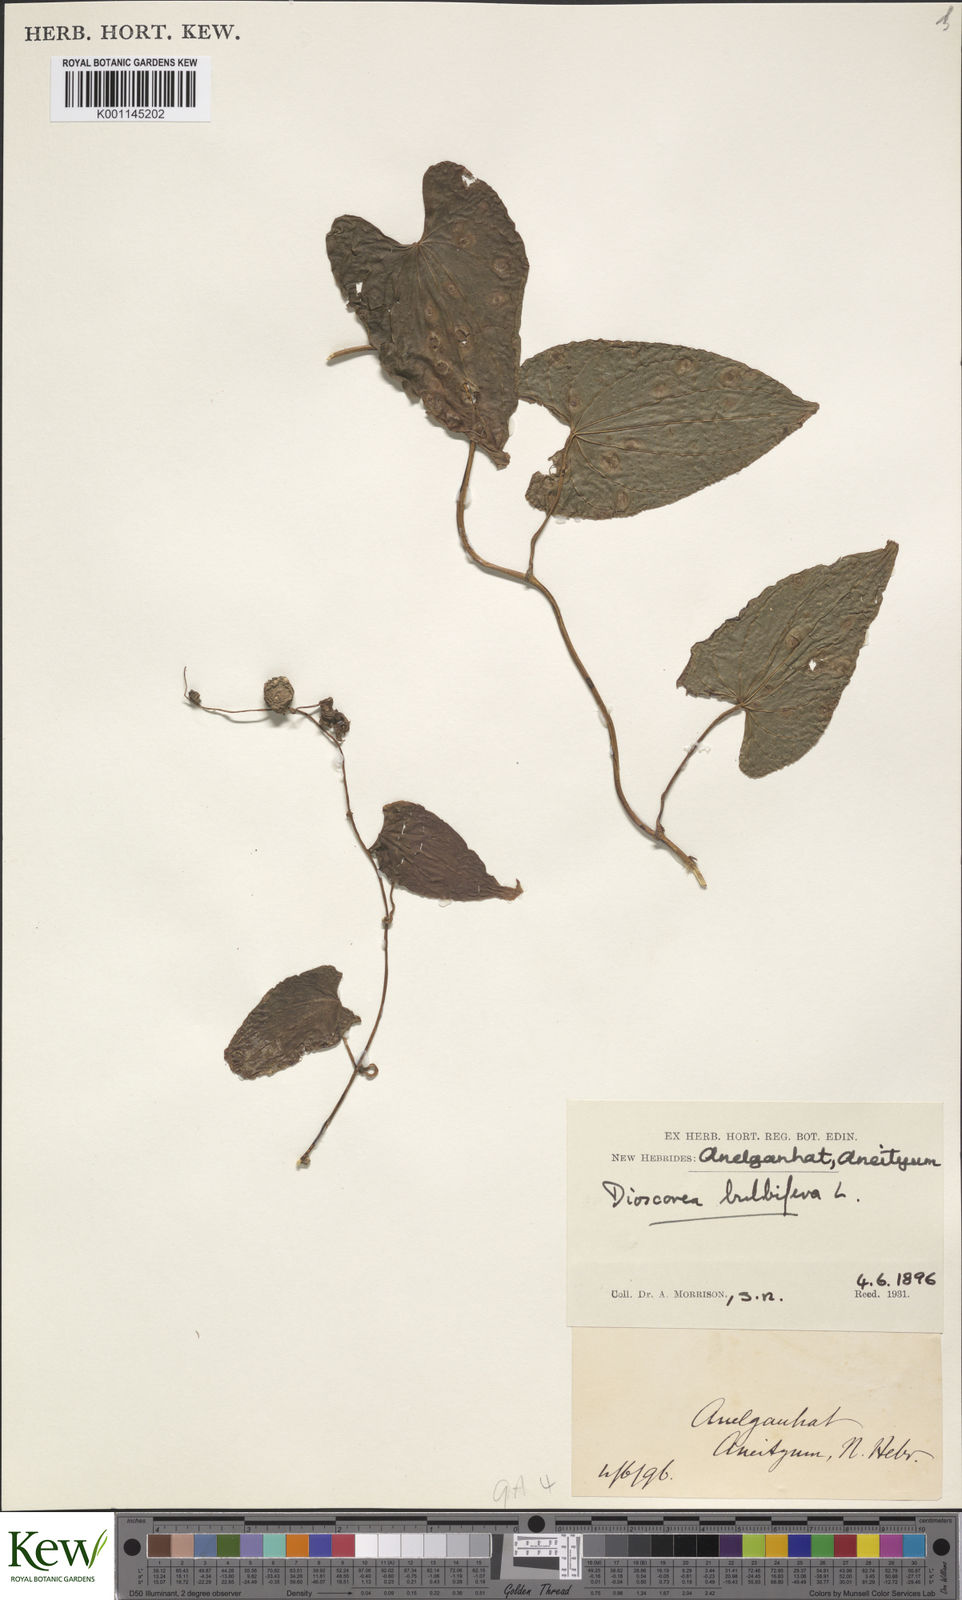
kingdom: Plantae
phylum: Tracheophyta
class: Liliopsida
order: Dioscoreales
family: Dioscoreaceae
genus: Dioscorea
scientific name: Dioscorea bulbifera
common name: Air yam
